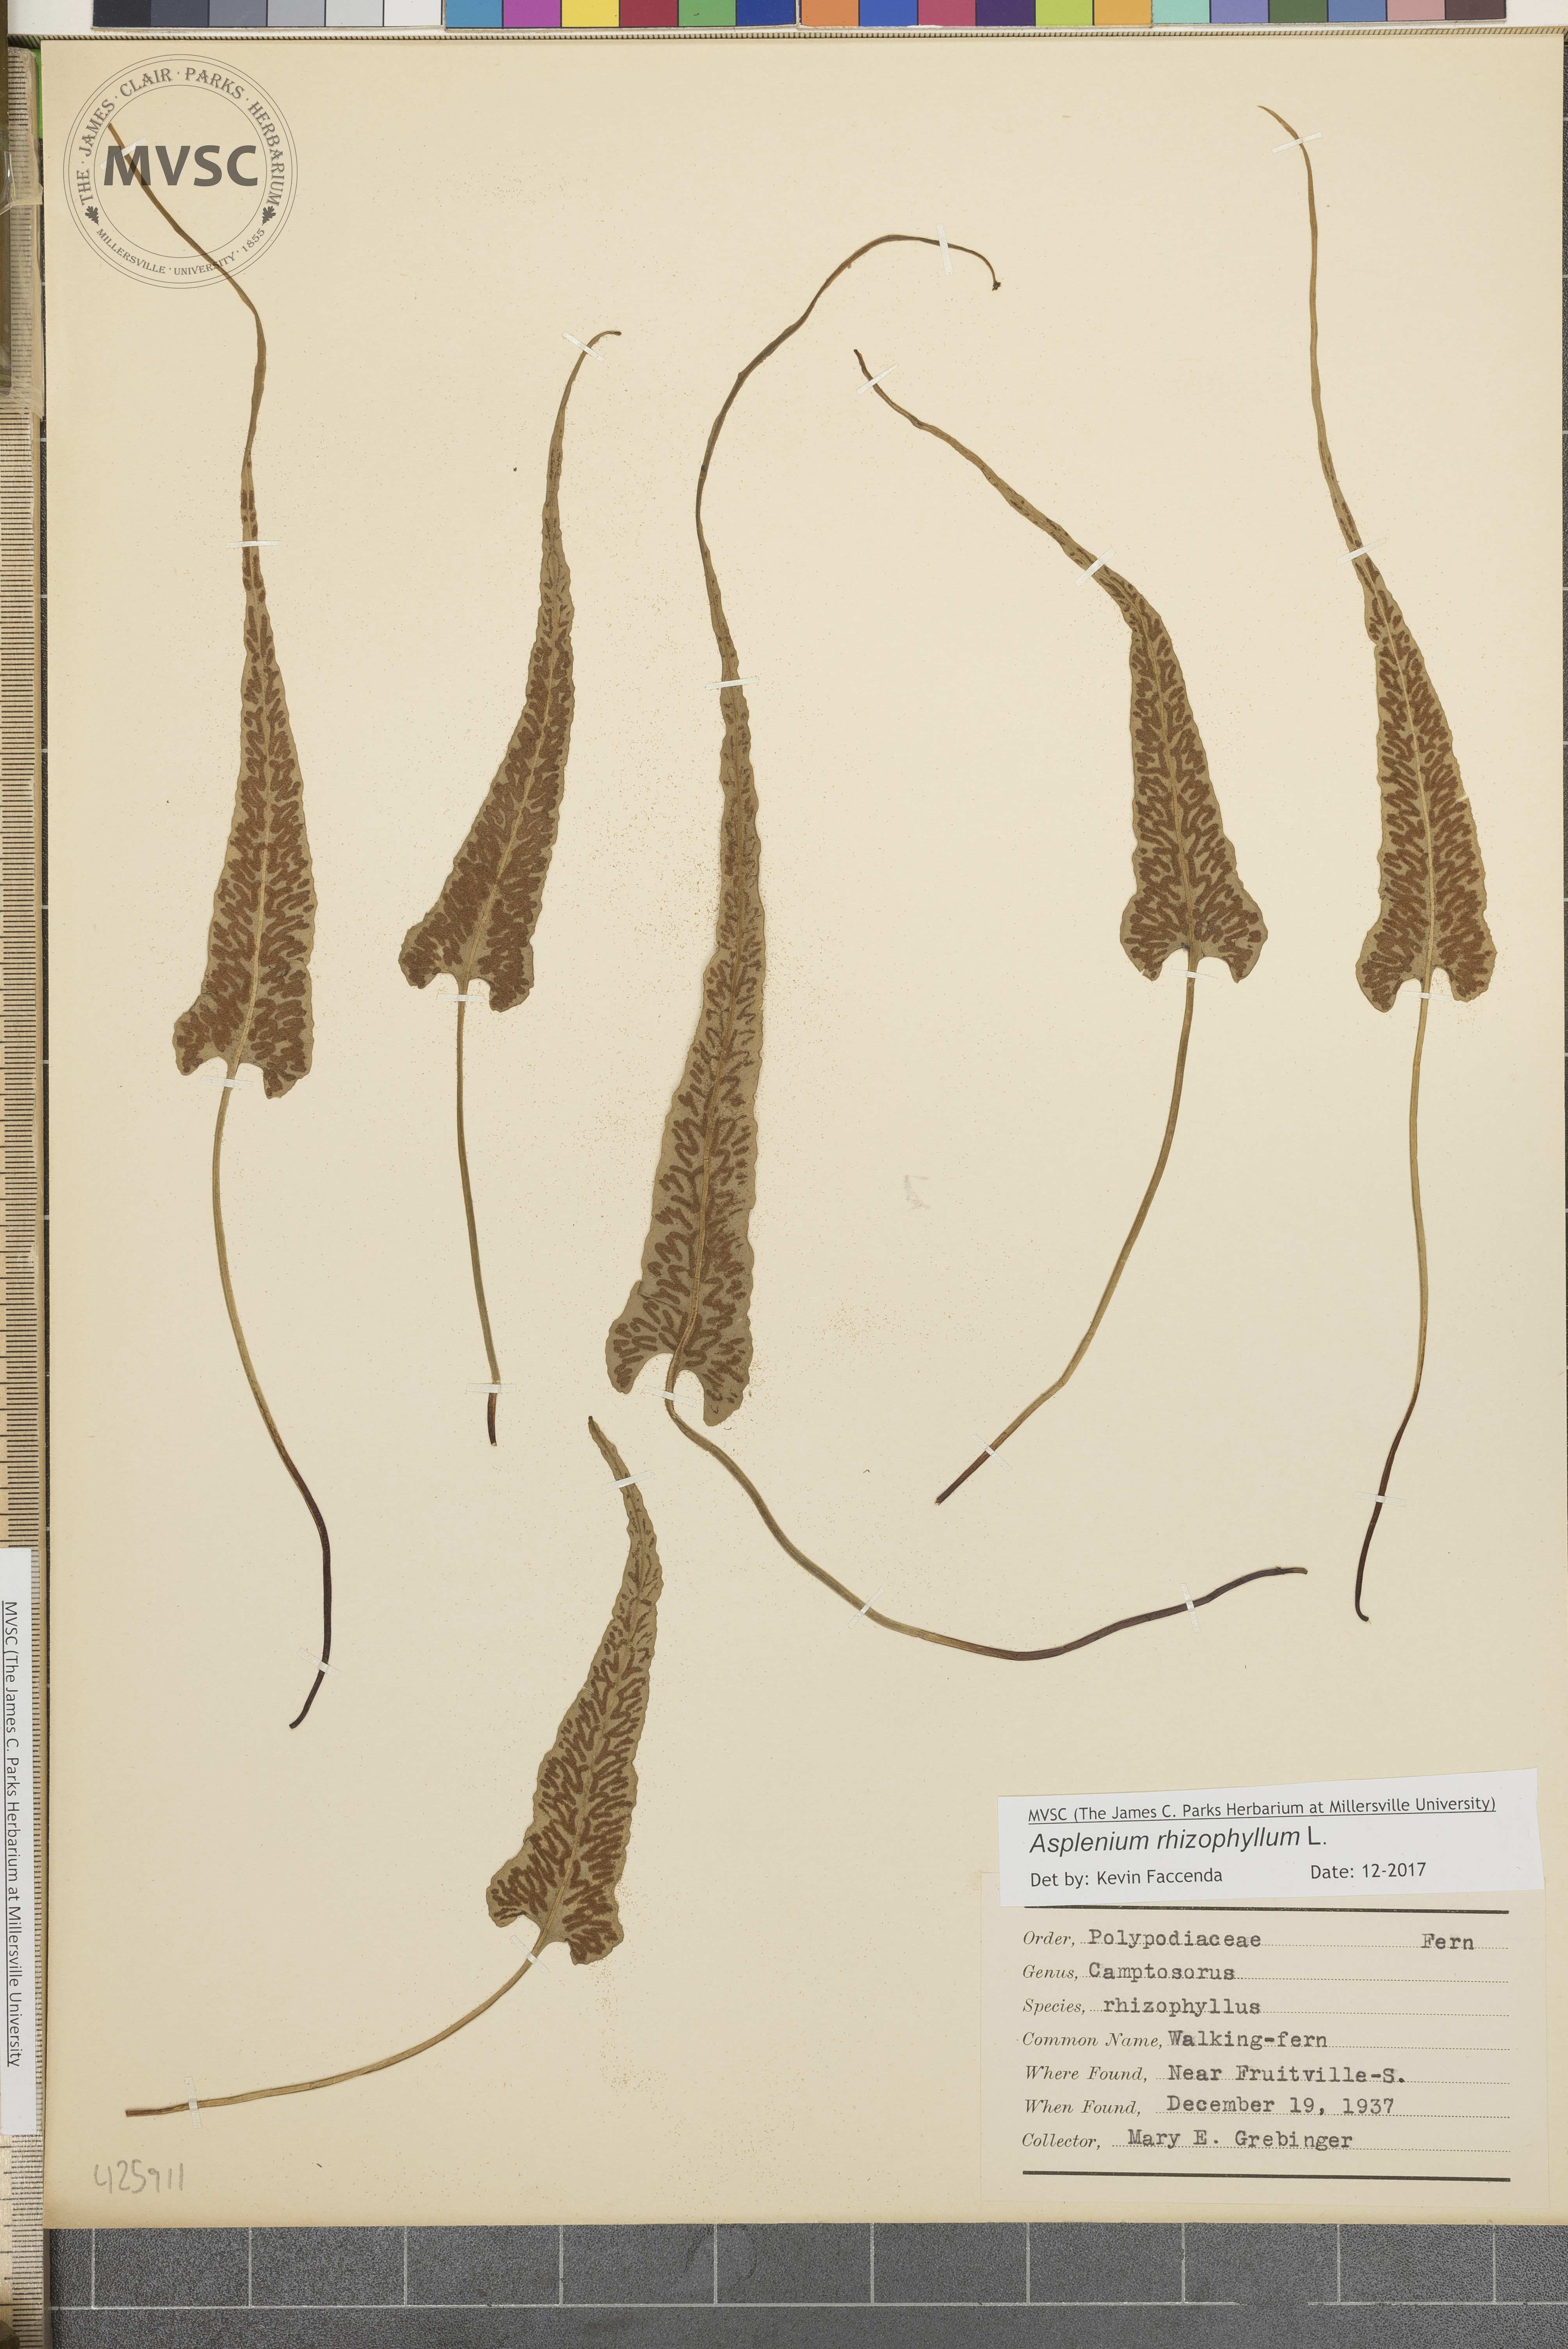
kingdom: Plantae
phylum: Tracheophyta
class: Polypodiopsida
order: Polypodiales
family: Aspleniaceae
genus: Asplenium
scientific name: Asplenium rhizophyllum
